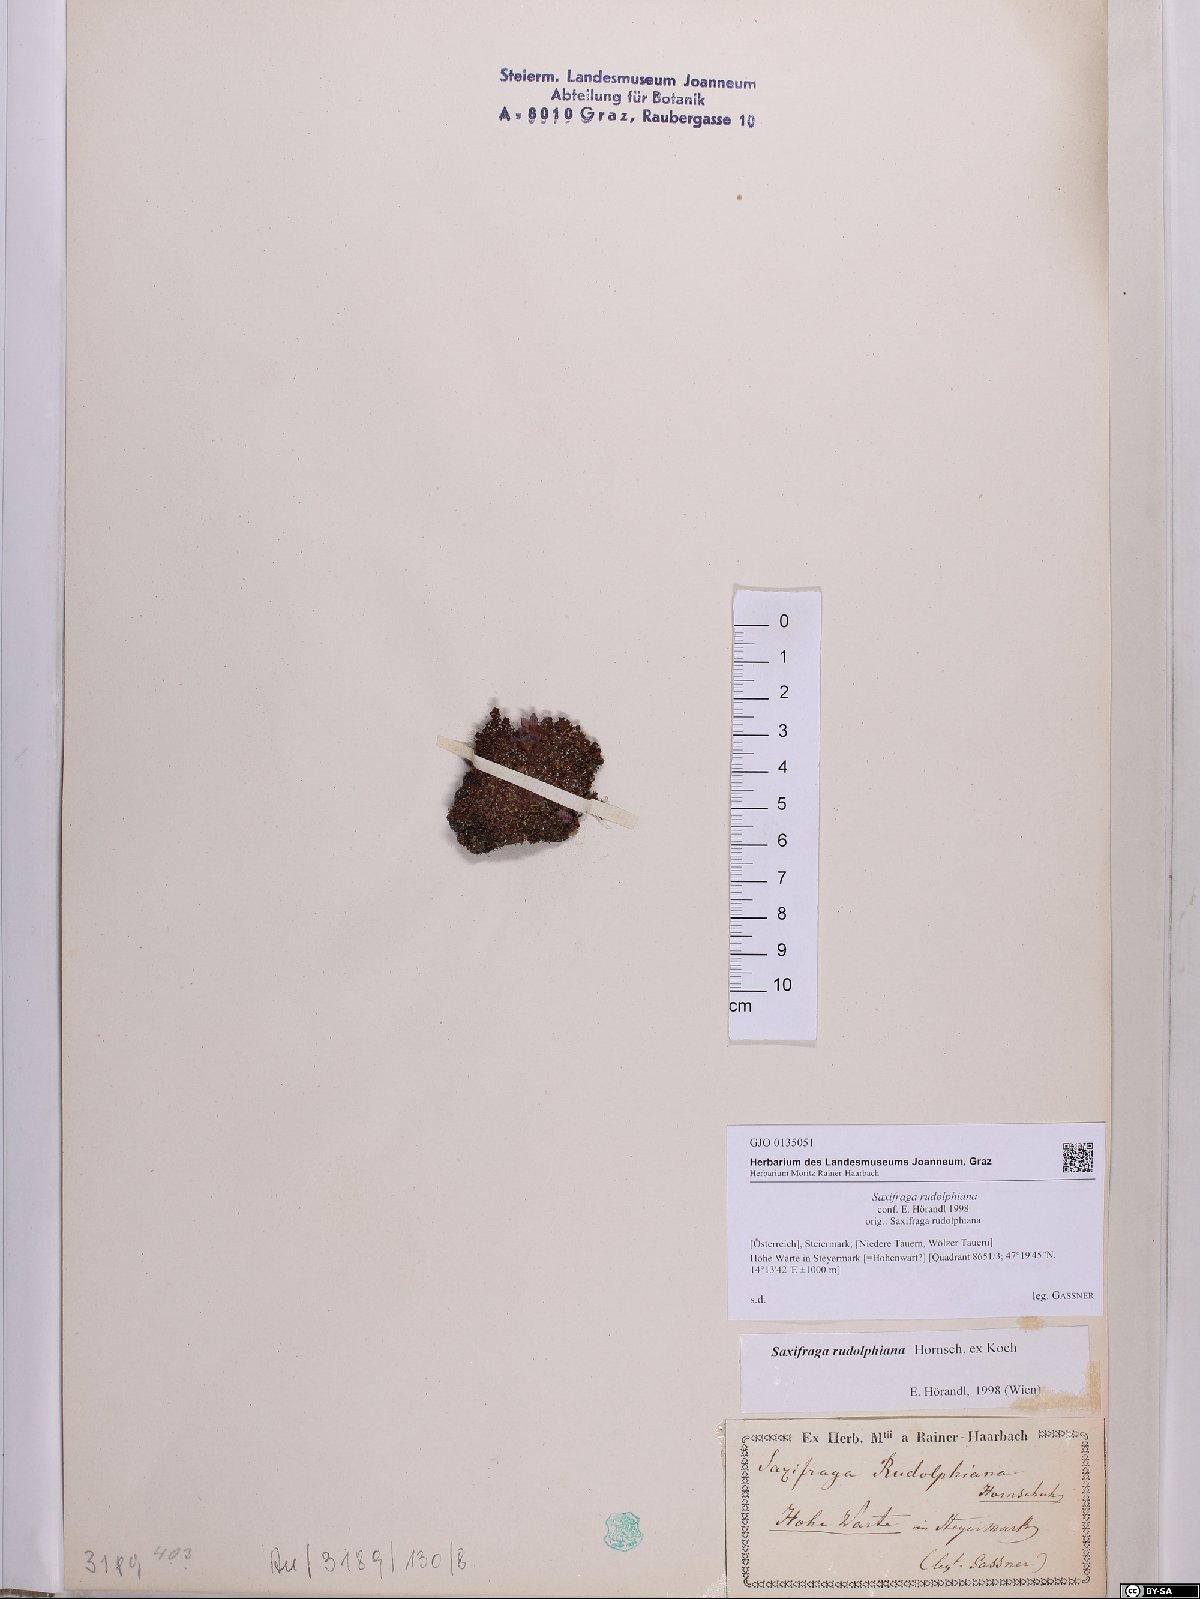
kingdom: Plantae
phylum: Tracheophyta
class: Magnoliopsida
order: Saxifragales
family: Saxifragaceae
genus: Saxifraga
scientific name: Saxifraga oppositifolia
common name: Purple saxifrage
